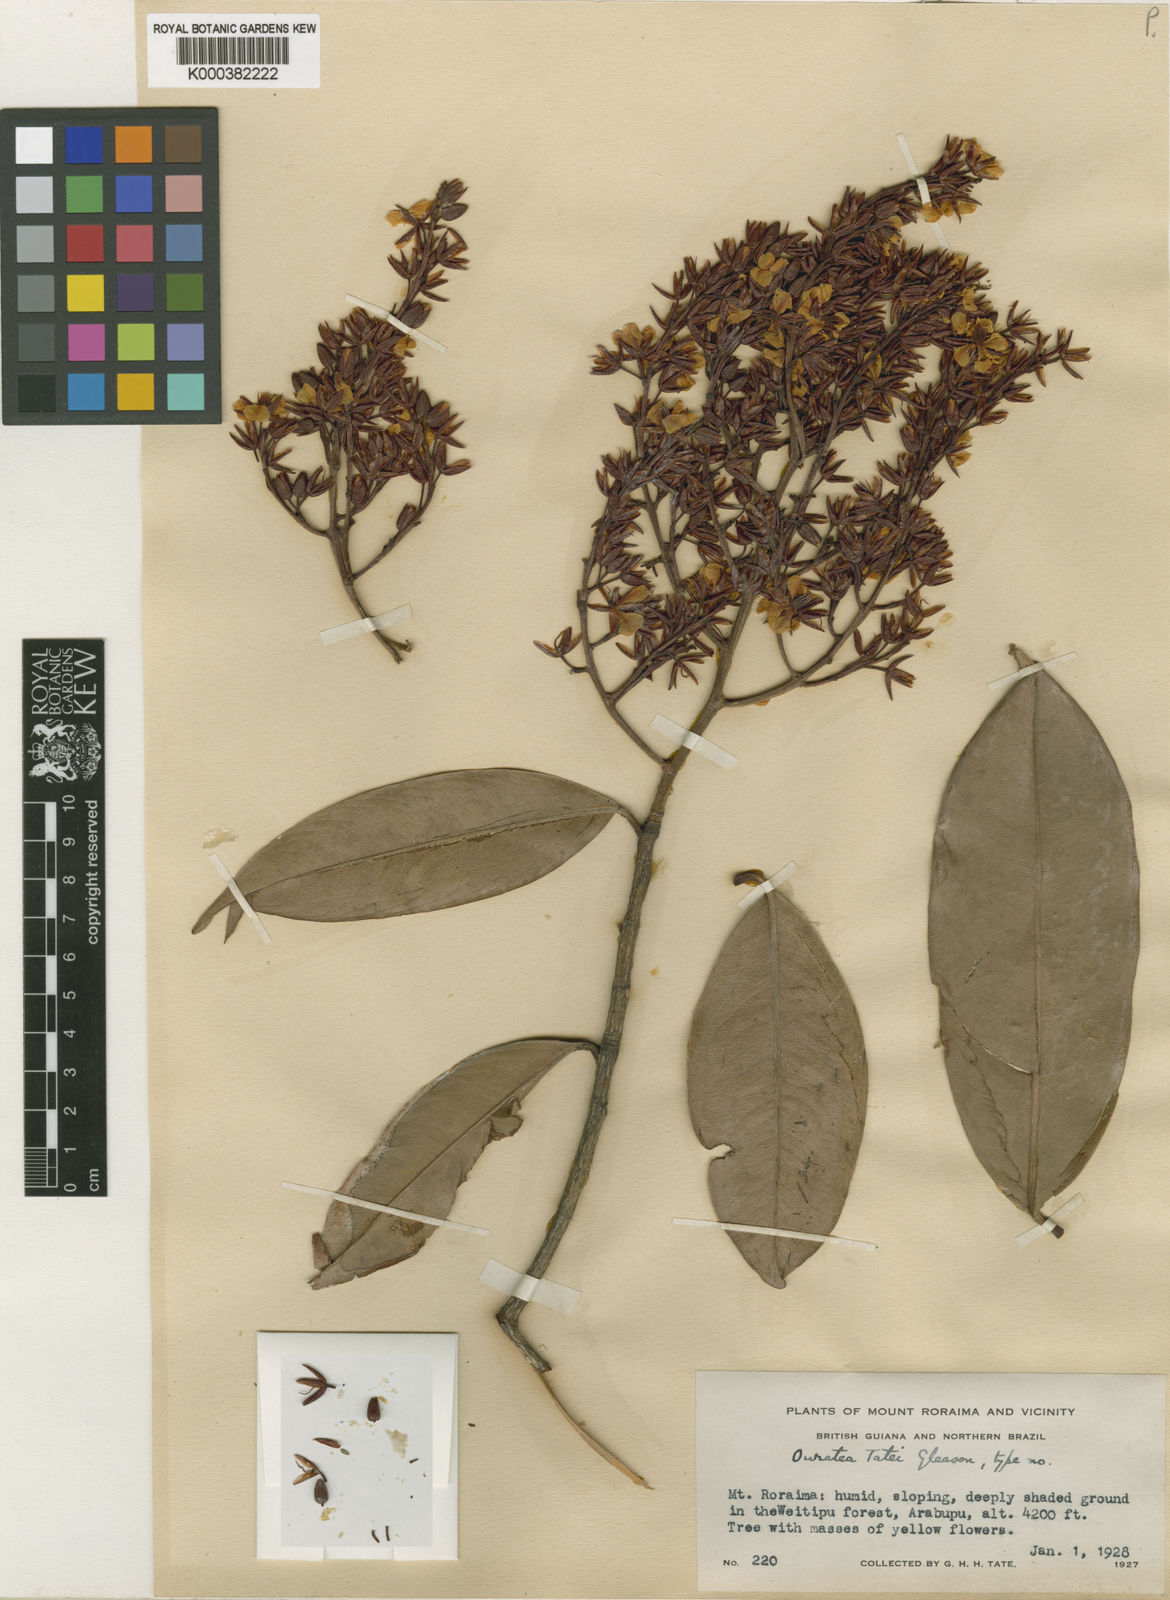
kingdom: Plantae
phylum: Tracheophyta
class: Magnoliopsida
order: Malpighiales
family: Ochnaceae
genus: Ouratea
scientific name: Ouratea tatei
